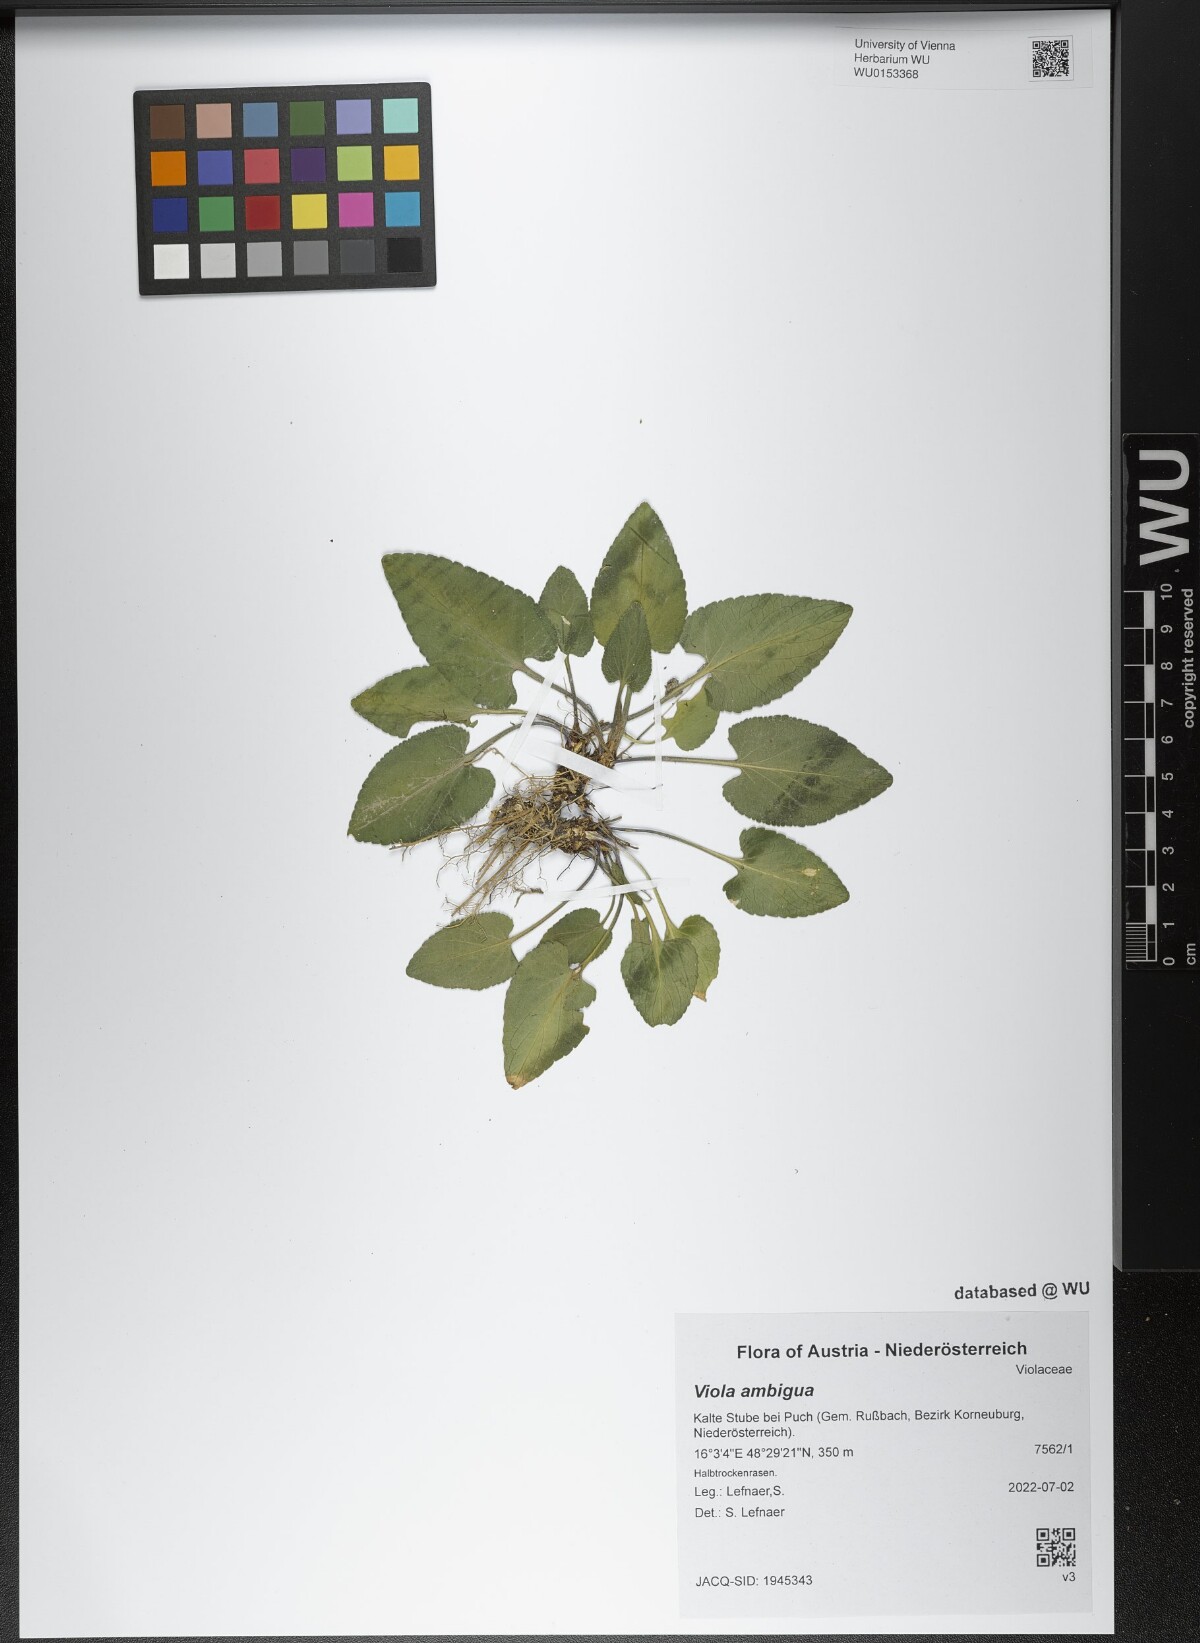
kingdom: Plantae
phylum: Tracheophyta
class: Magnoliopsida
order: Malpighiales
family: Violaceae
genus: Viola
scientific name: Viola ambigua
